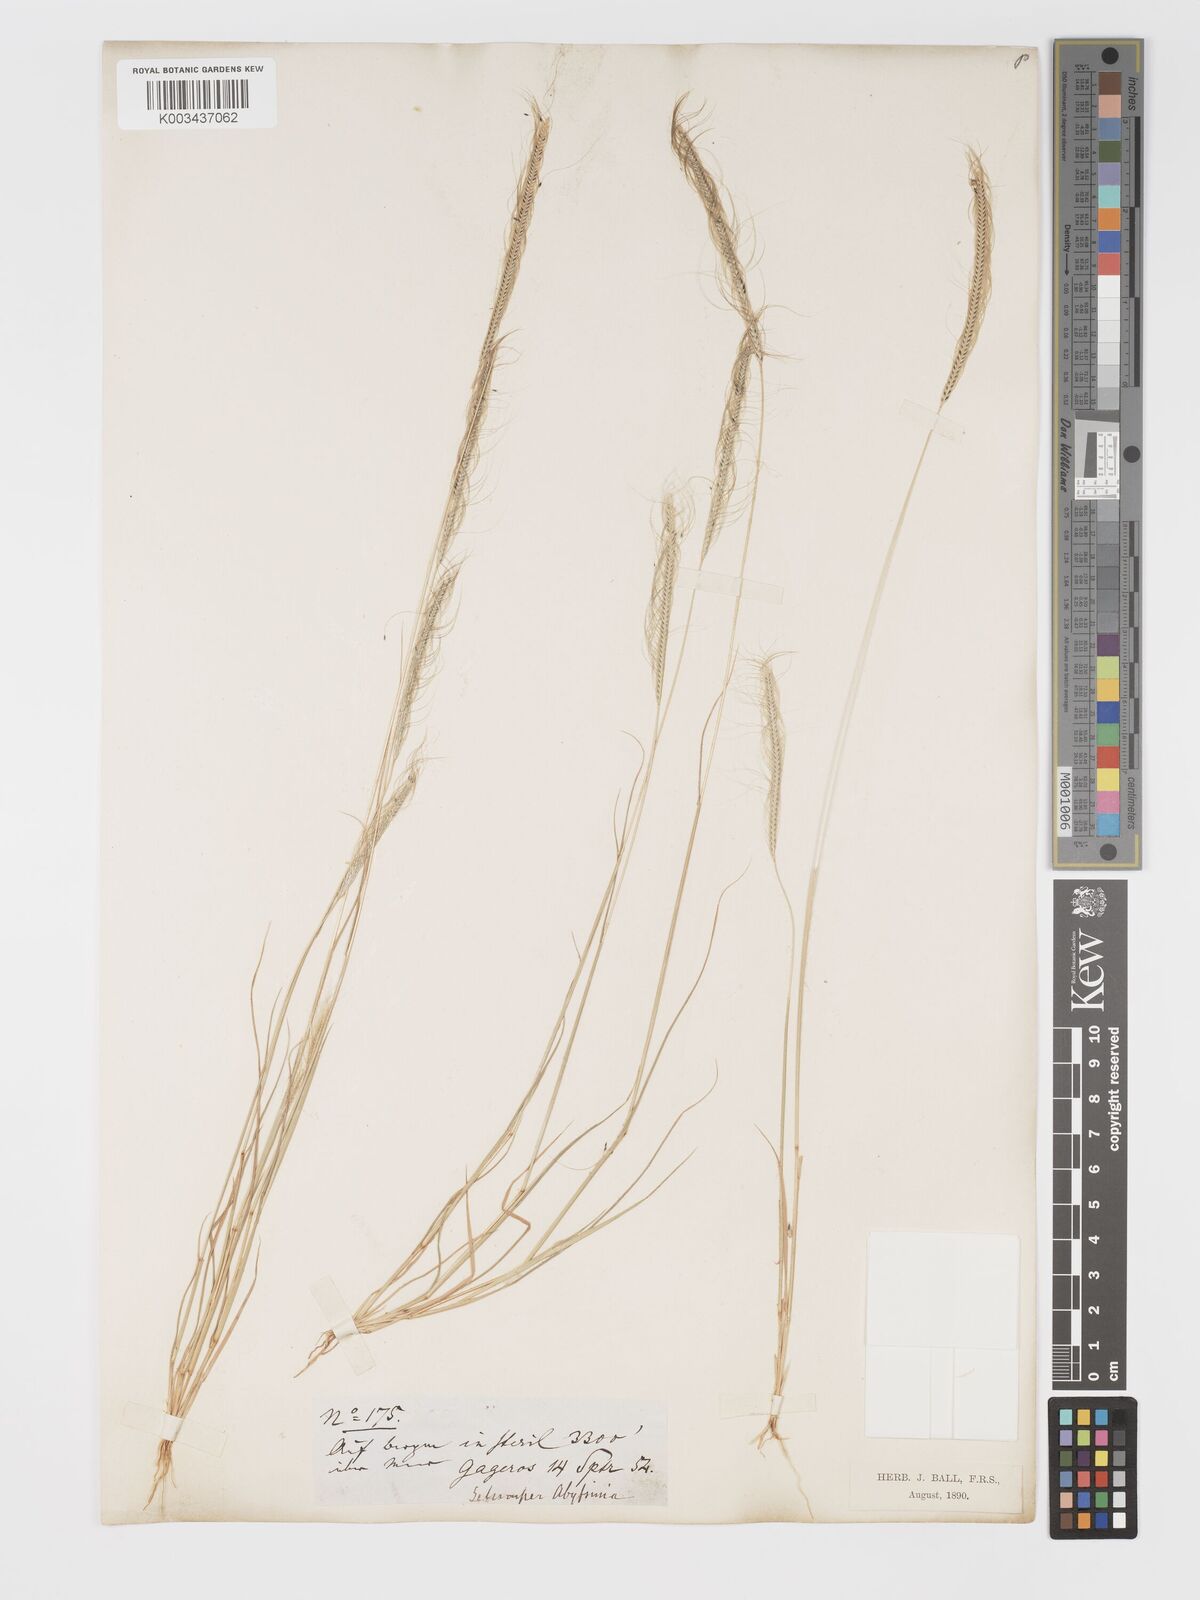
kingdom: Plantae
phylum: Tracheophyta
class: Liliopsida
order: Poales
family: Poaceae
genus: Schoenefeldia
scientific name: Schoenefeldia gracilis
